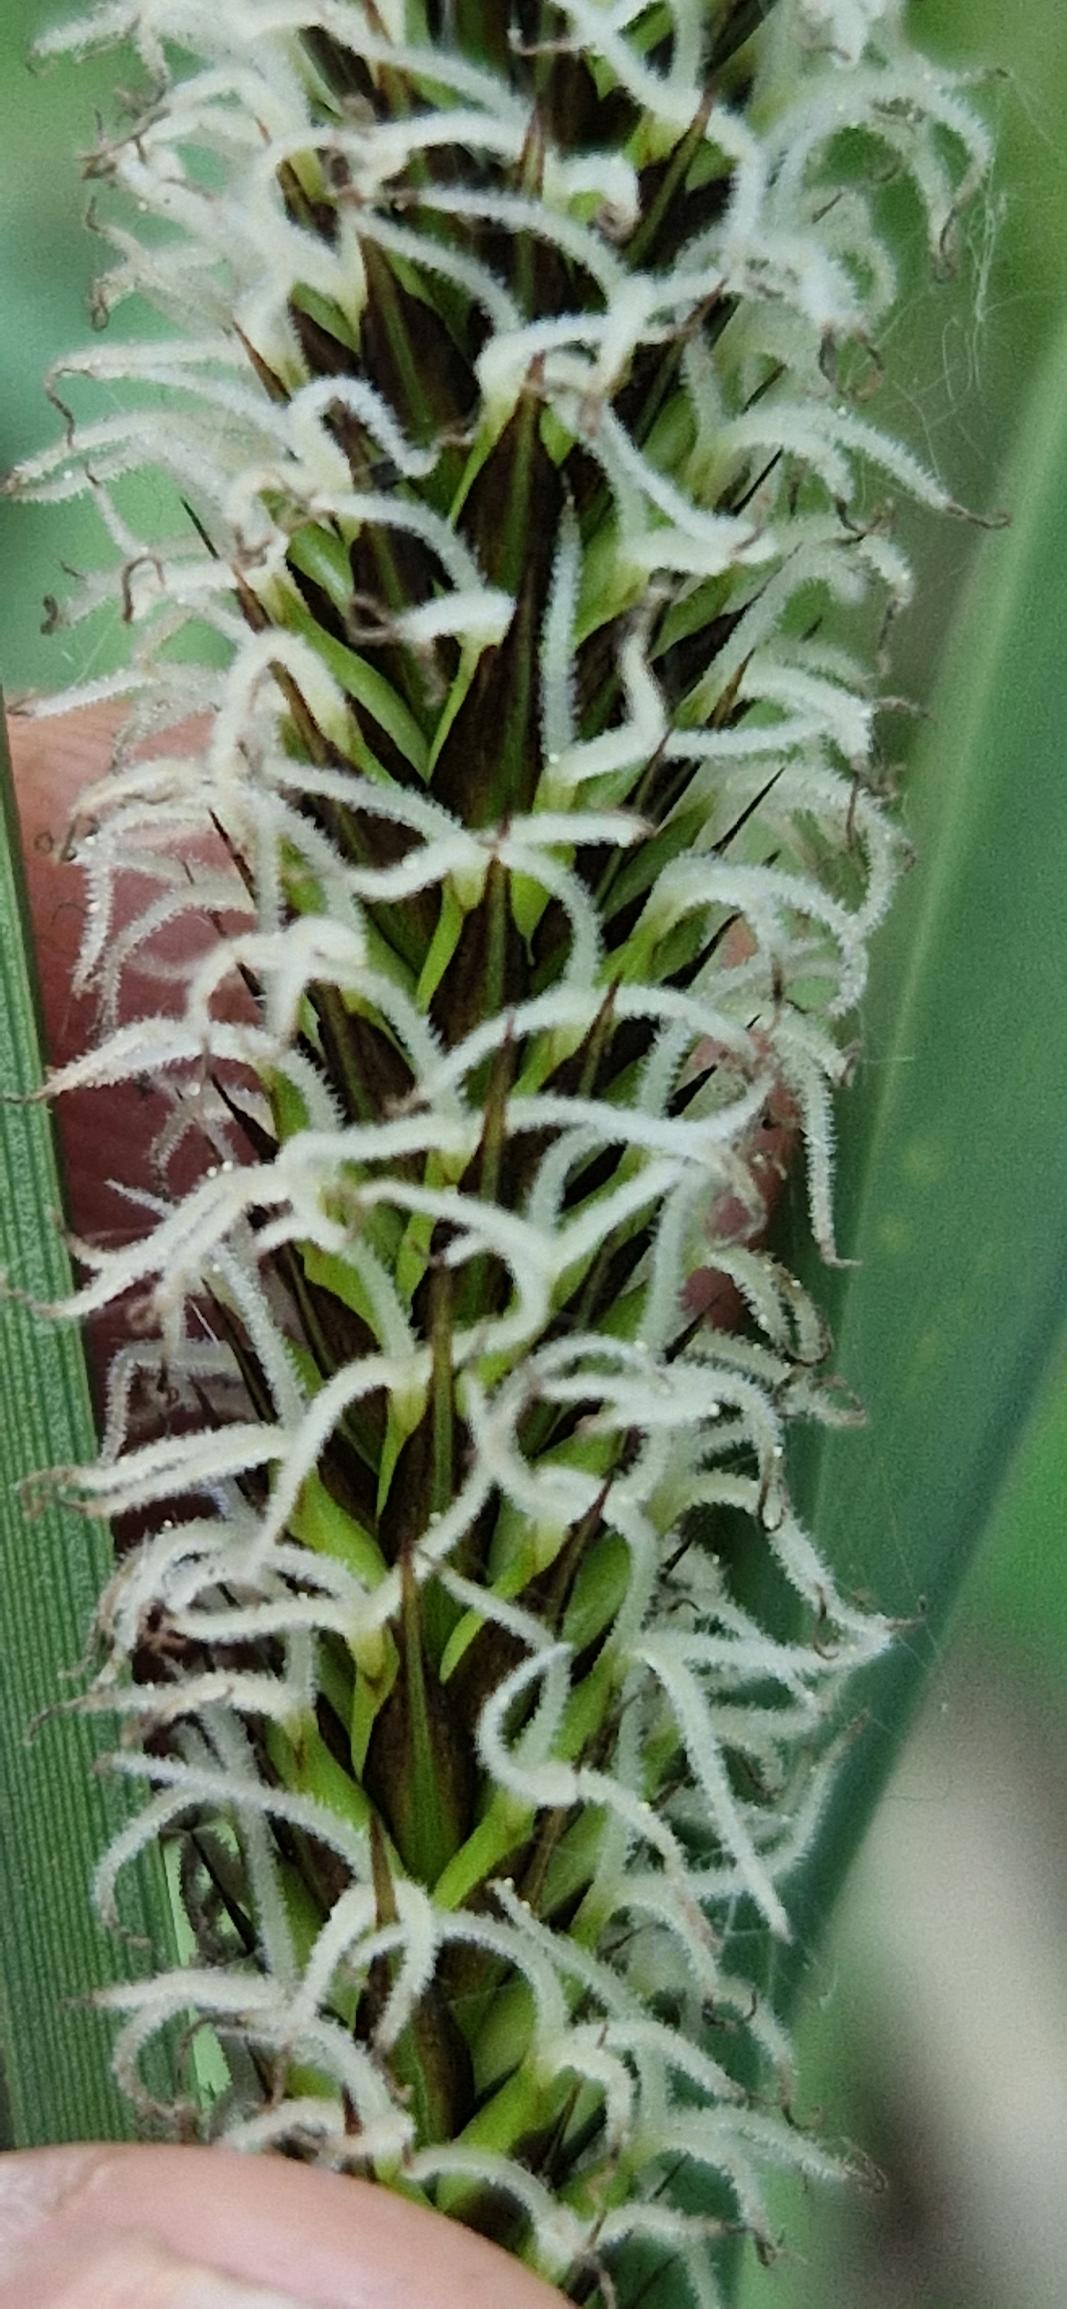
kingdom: Plantae
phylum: Tracheophyta
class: Liliopsida
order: Poales
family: Cyperaceae
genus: Carex
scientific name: Carex acutiformis
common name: Kær-star
